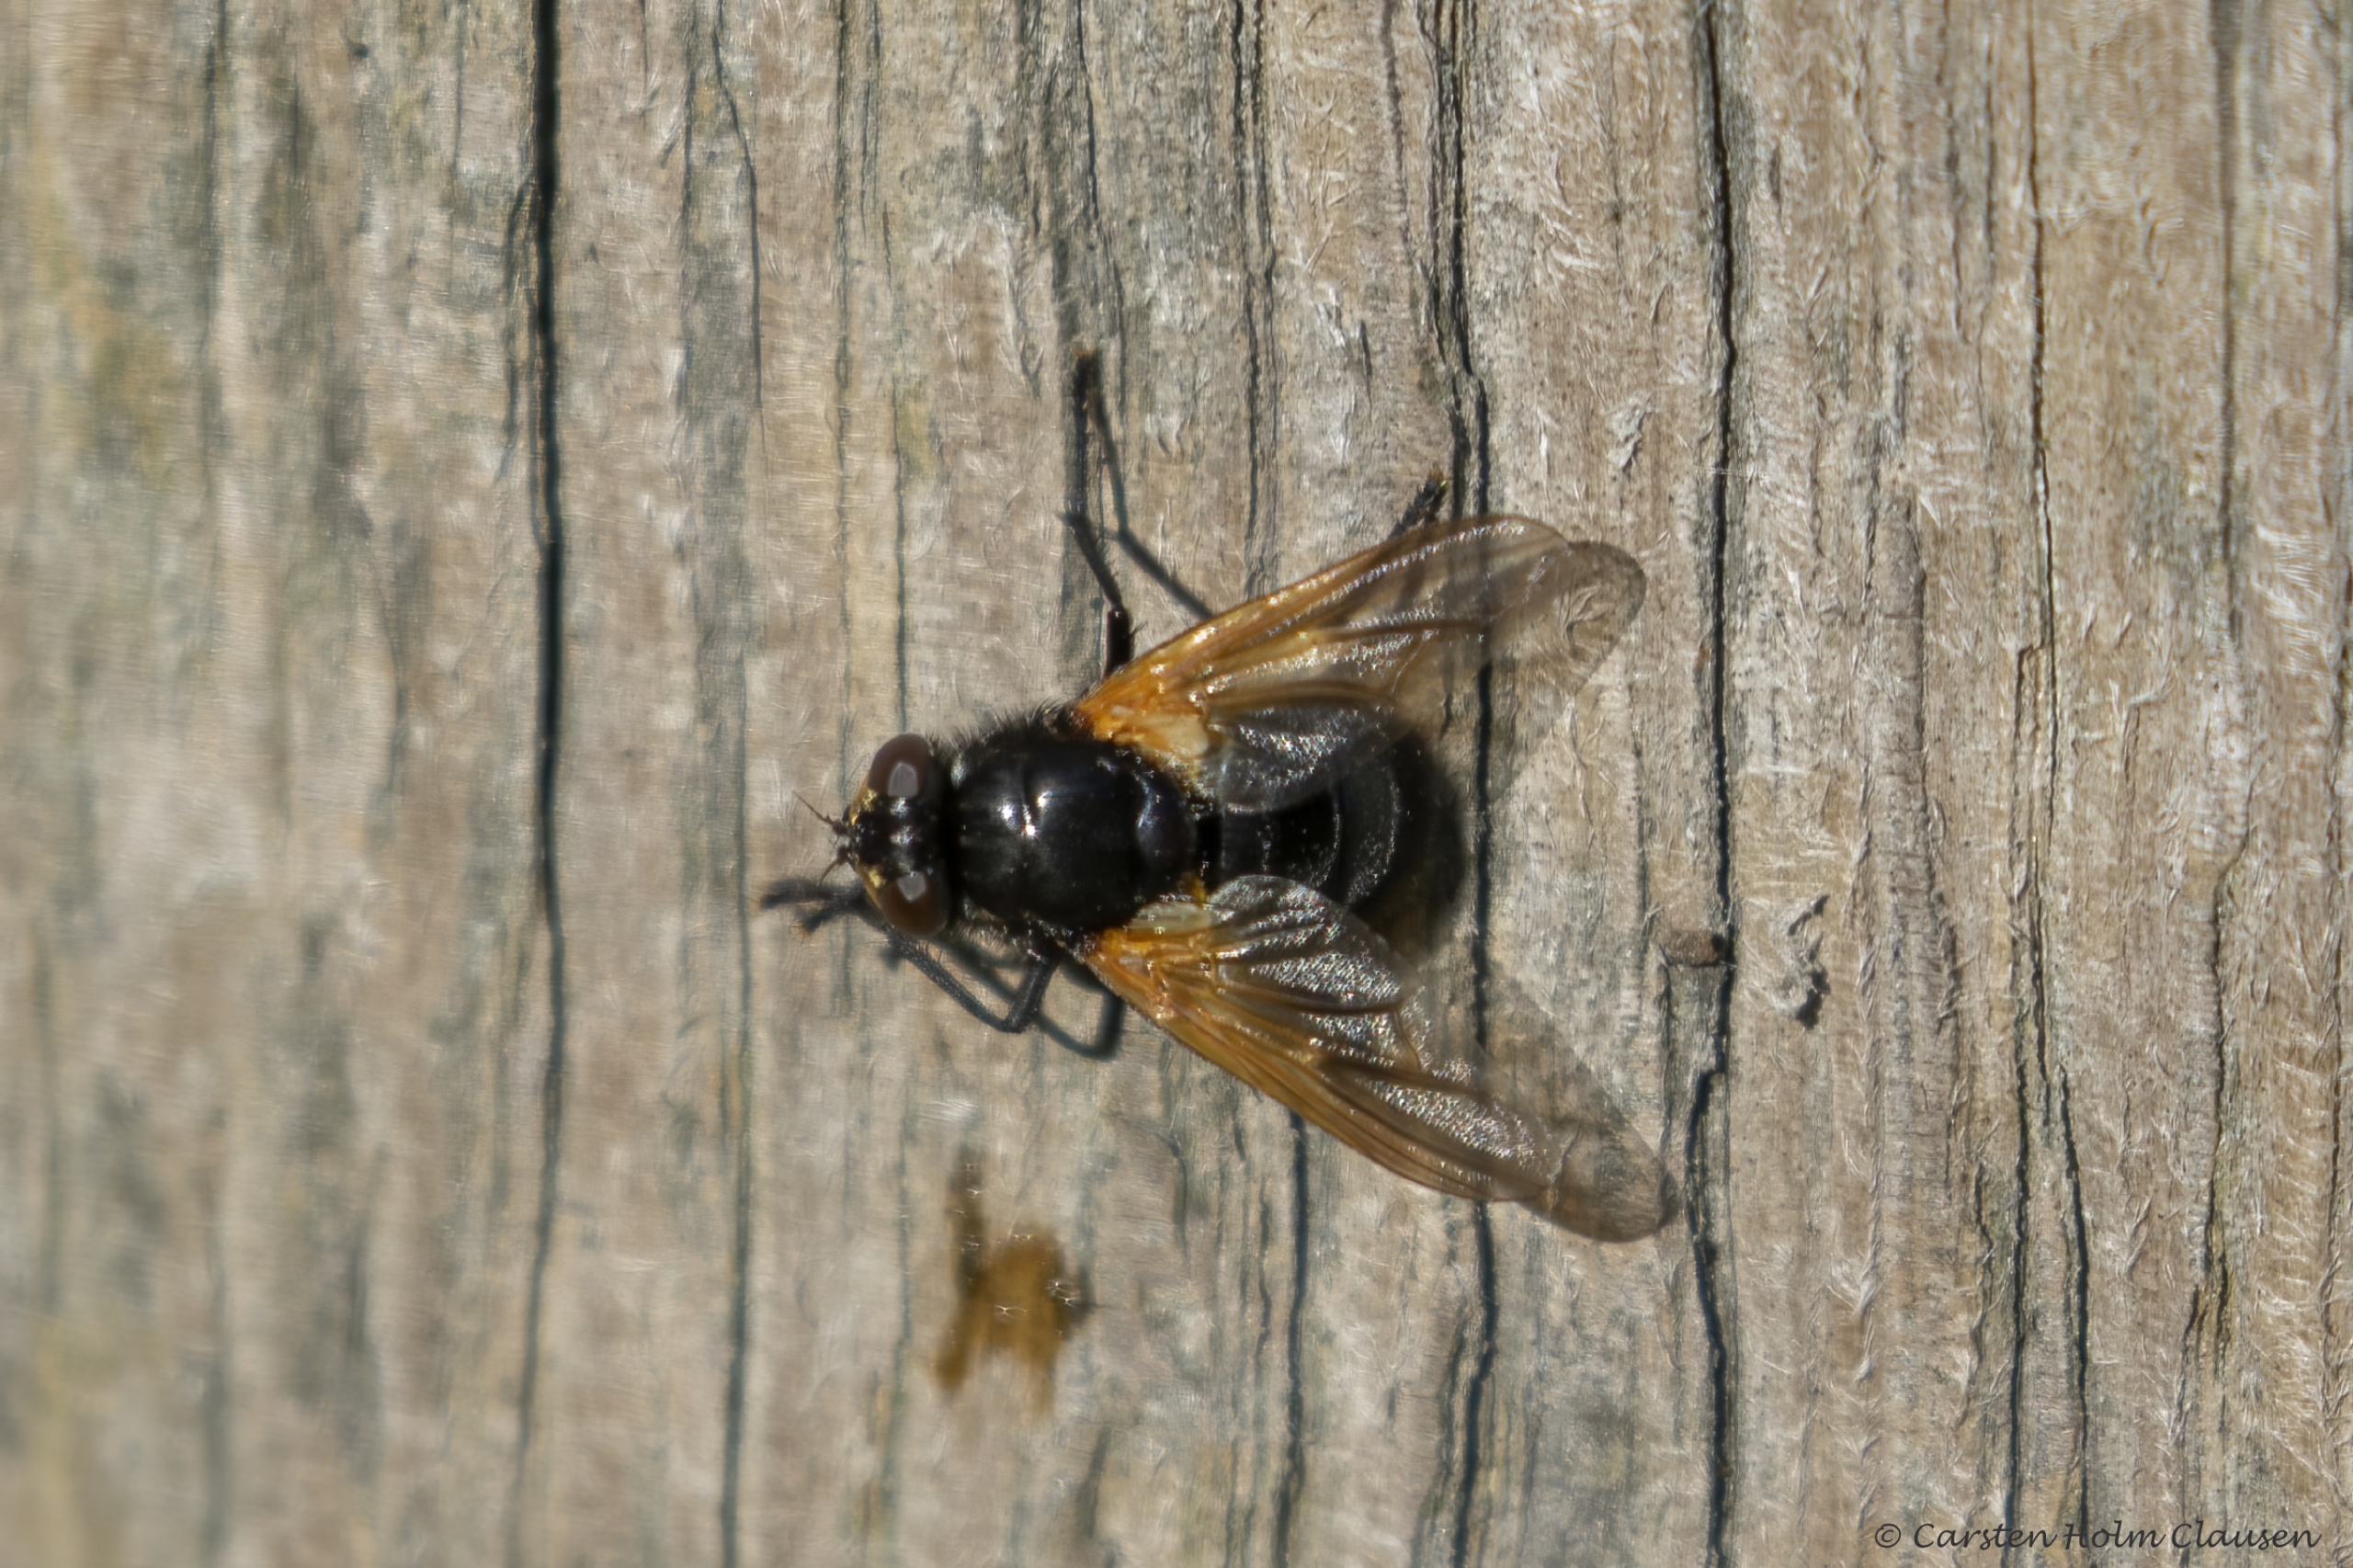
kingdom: Animalia
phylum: Arthropoda
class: Insecta
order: Diptera
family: Muscidae
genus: Mesembrina
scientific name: Mesembrina meridiana
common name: Gulvinget flue
